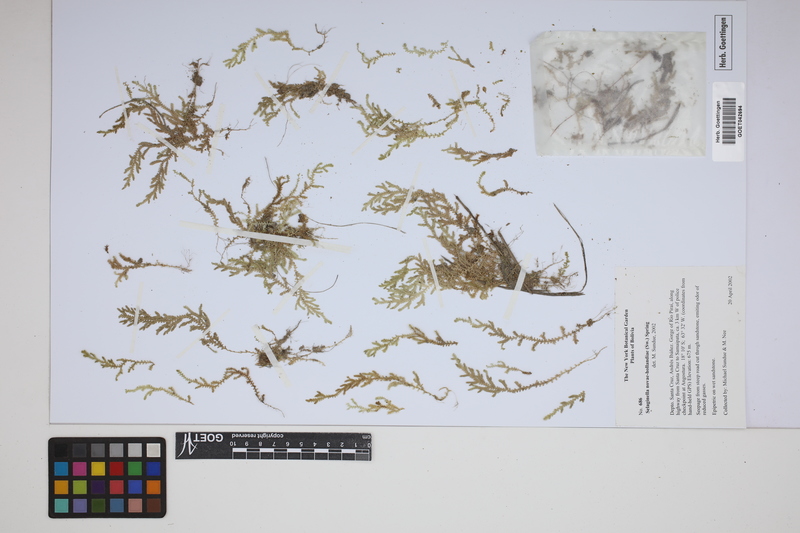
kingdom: Plantae
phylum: Tracheophyta
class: Lycopodiopsida
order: Selaginellales
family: Selaginellaceae
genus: Selaginella
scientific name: Selaginella novae-hollandiae
